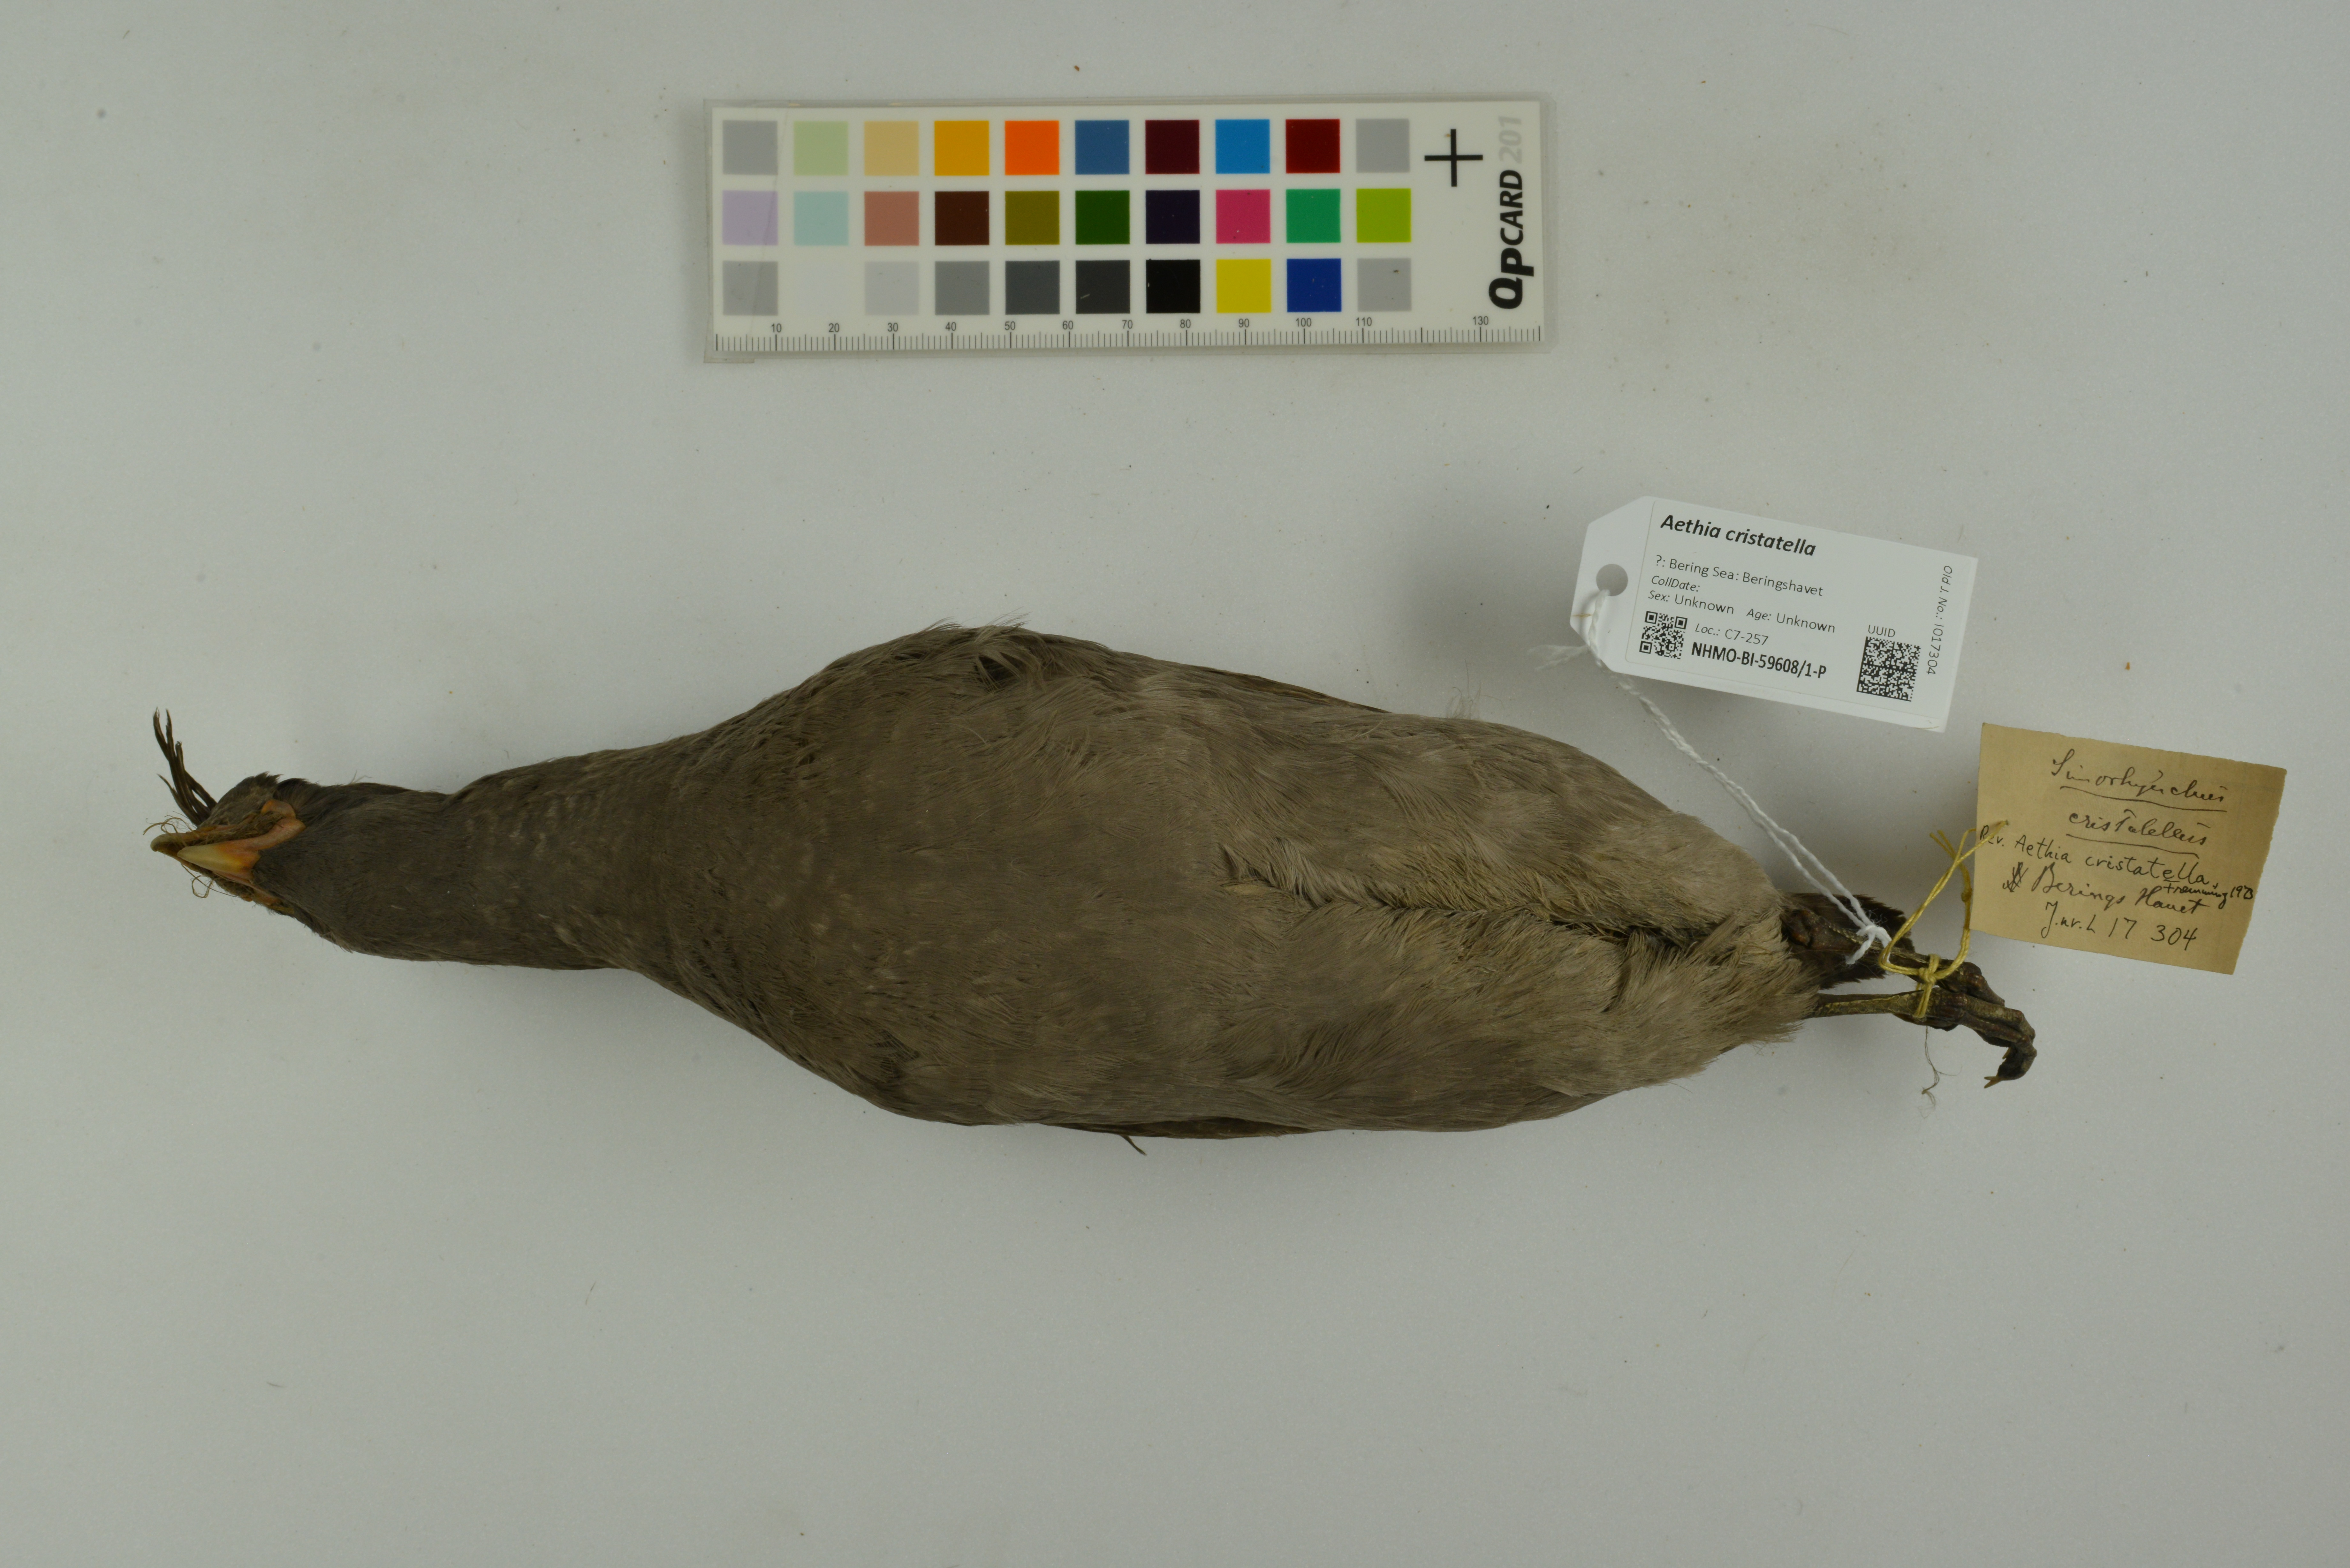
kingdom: Animalia
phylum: Chordata
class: Aves
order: Charadriiformes
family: Alcidae
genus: Aethia
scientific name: Aethia cristatella
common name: Crested auklet
